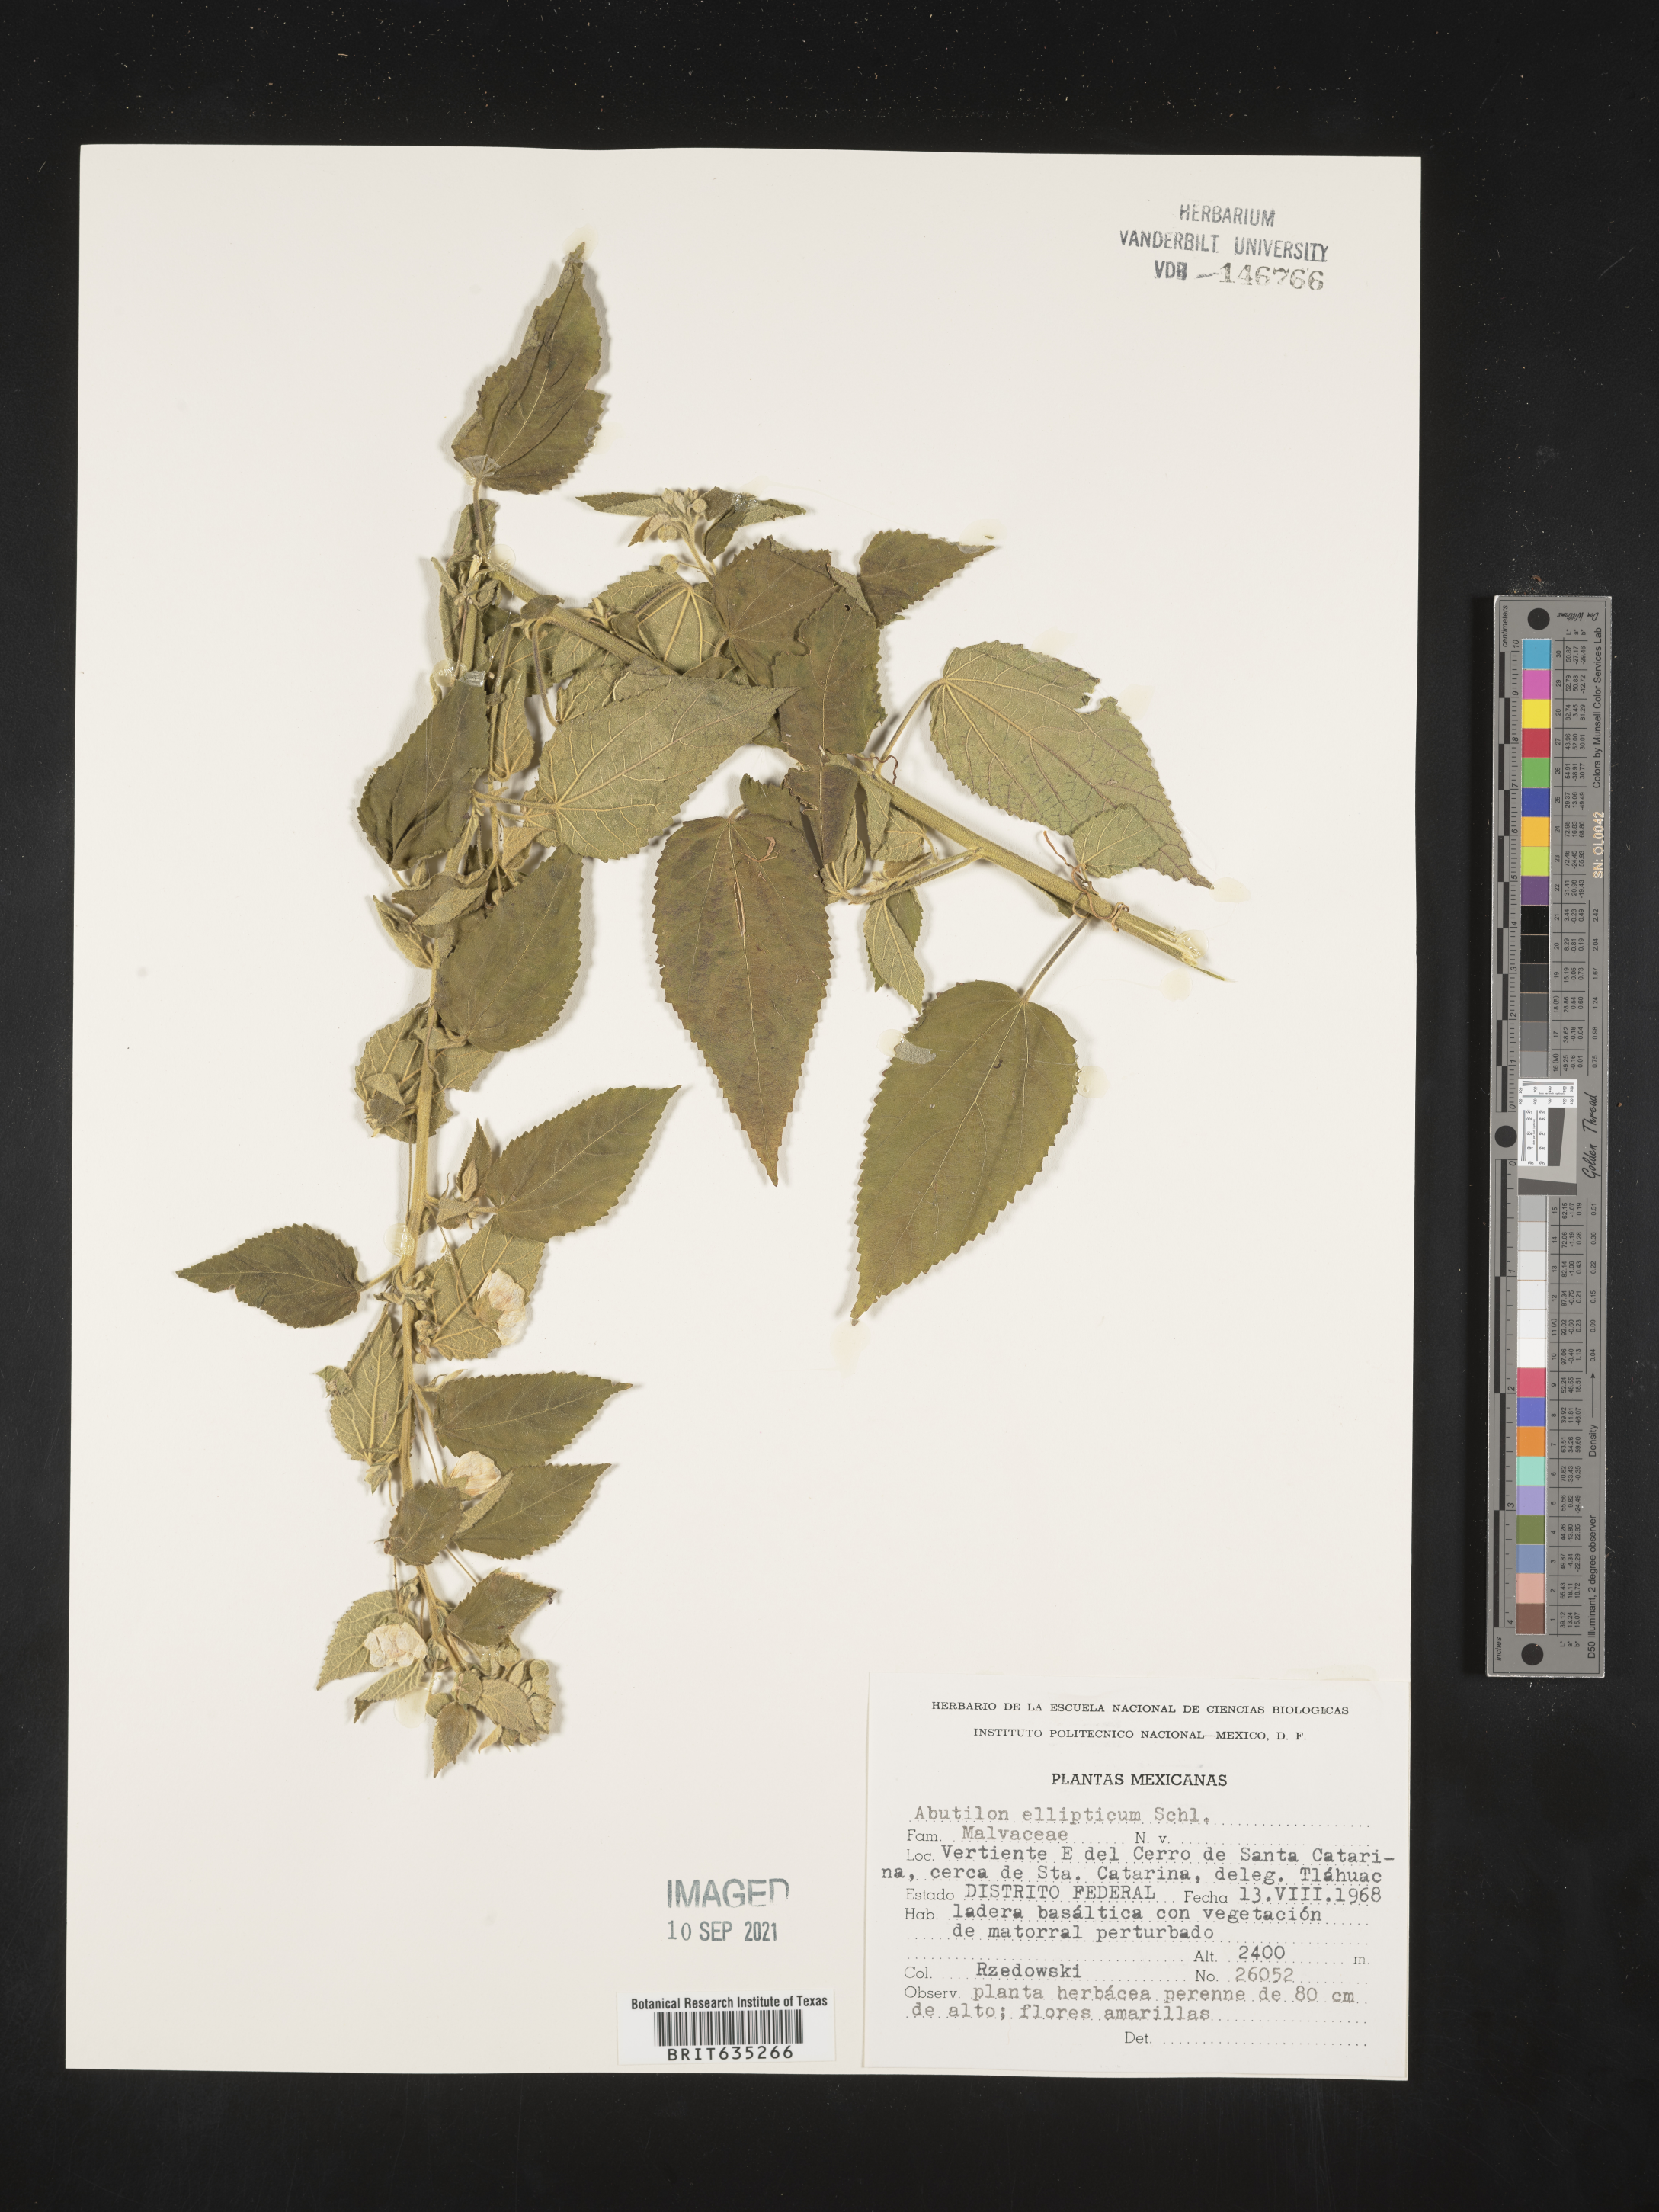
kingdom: Plantae
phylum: Tracheophyta
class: Magnoliopsida
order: Malvales
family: Malvaceae
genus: Abutilon
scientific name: Abutilon
